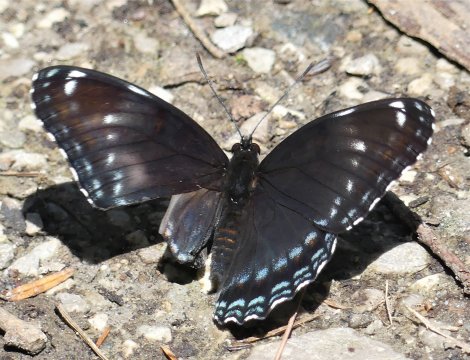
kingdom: Animalia
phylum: Arthropoda
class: Insecta
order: Lepidoptera
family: Nymphalidae
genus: Limenitis
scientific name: Limenitis arthemis
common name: Red-spotted Admiral
